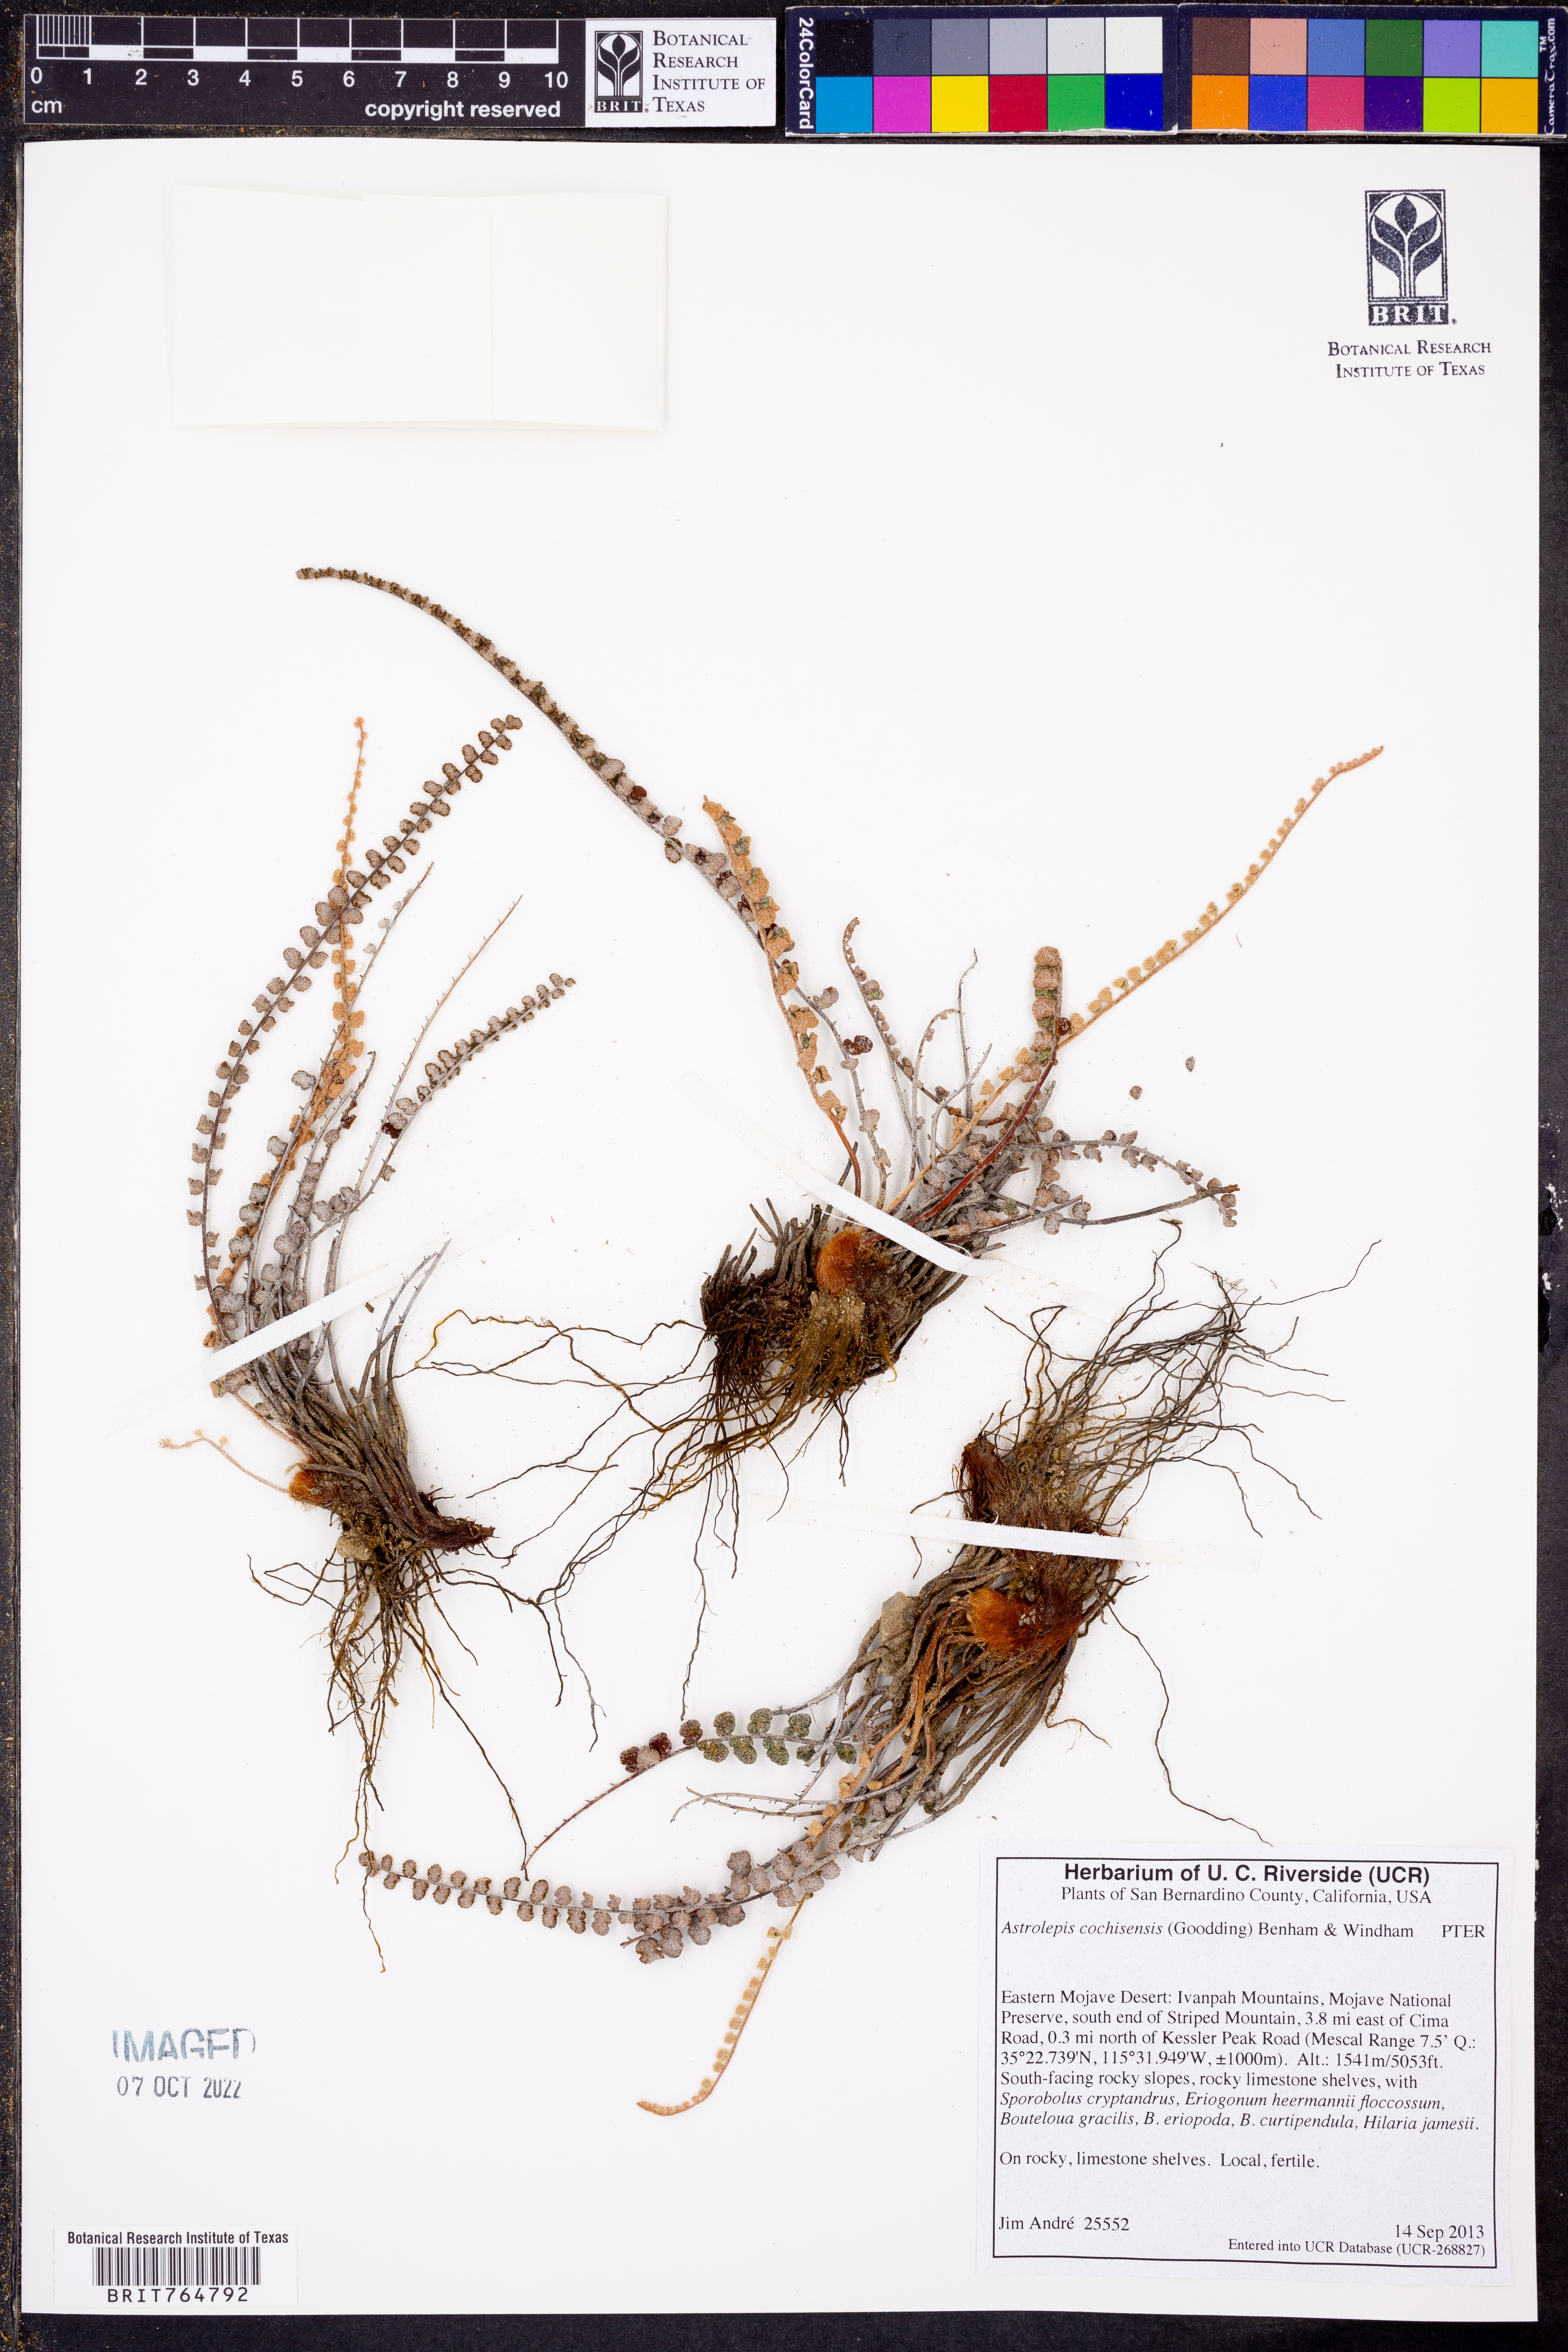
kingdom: Plantae
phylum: Tracheophyta
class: Polypodiopsida
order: Polypodiales
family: Pteridaceae
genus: Astrolepis
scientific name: Astrolepis cochisensis
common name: Scaly cloak fern
